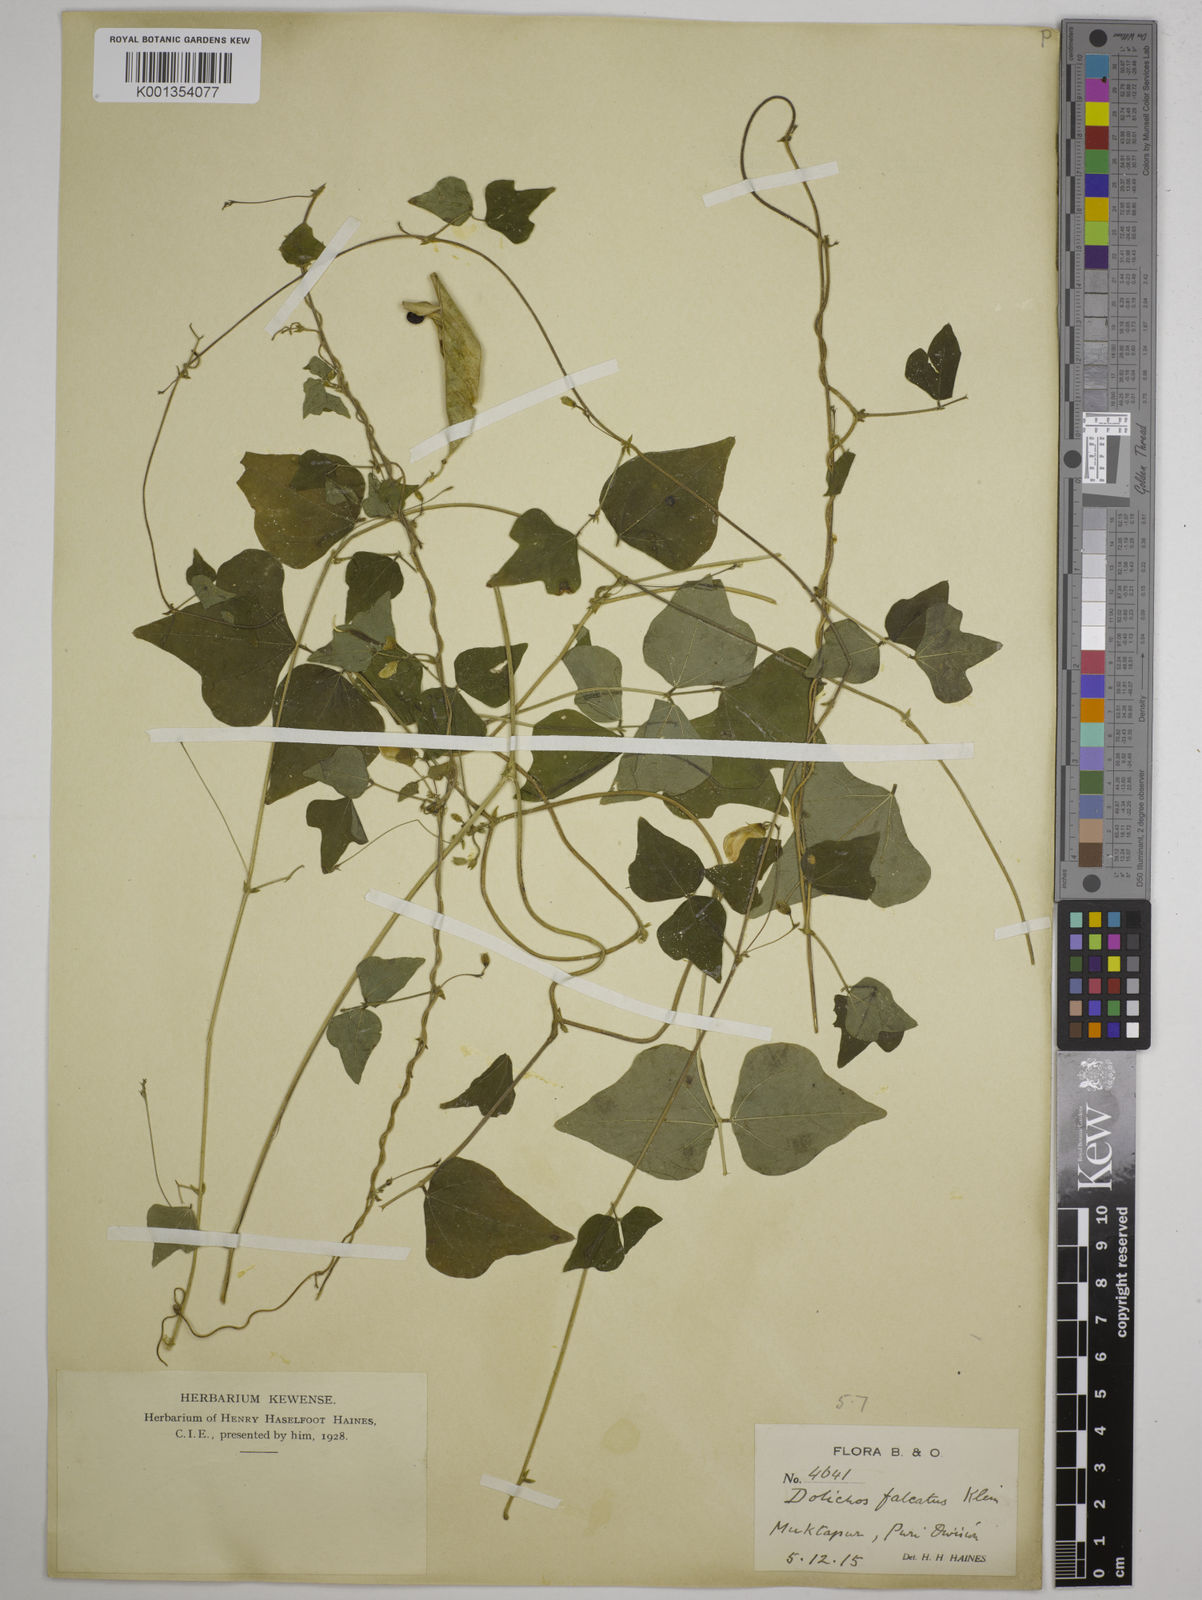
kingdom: Plantae
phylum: Tracheophyta
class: Magnoliopsida
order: Fabales
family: Fabaceae
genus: Dolichos
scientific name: Dolichos
